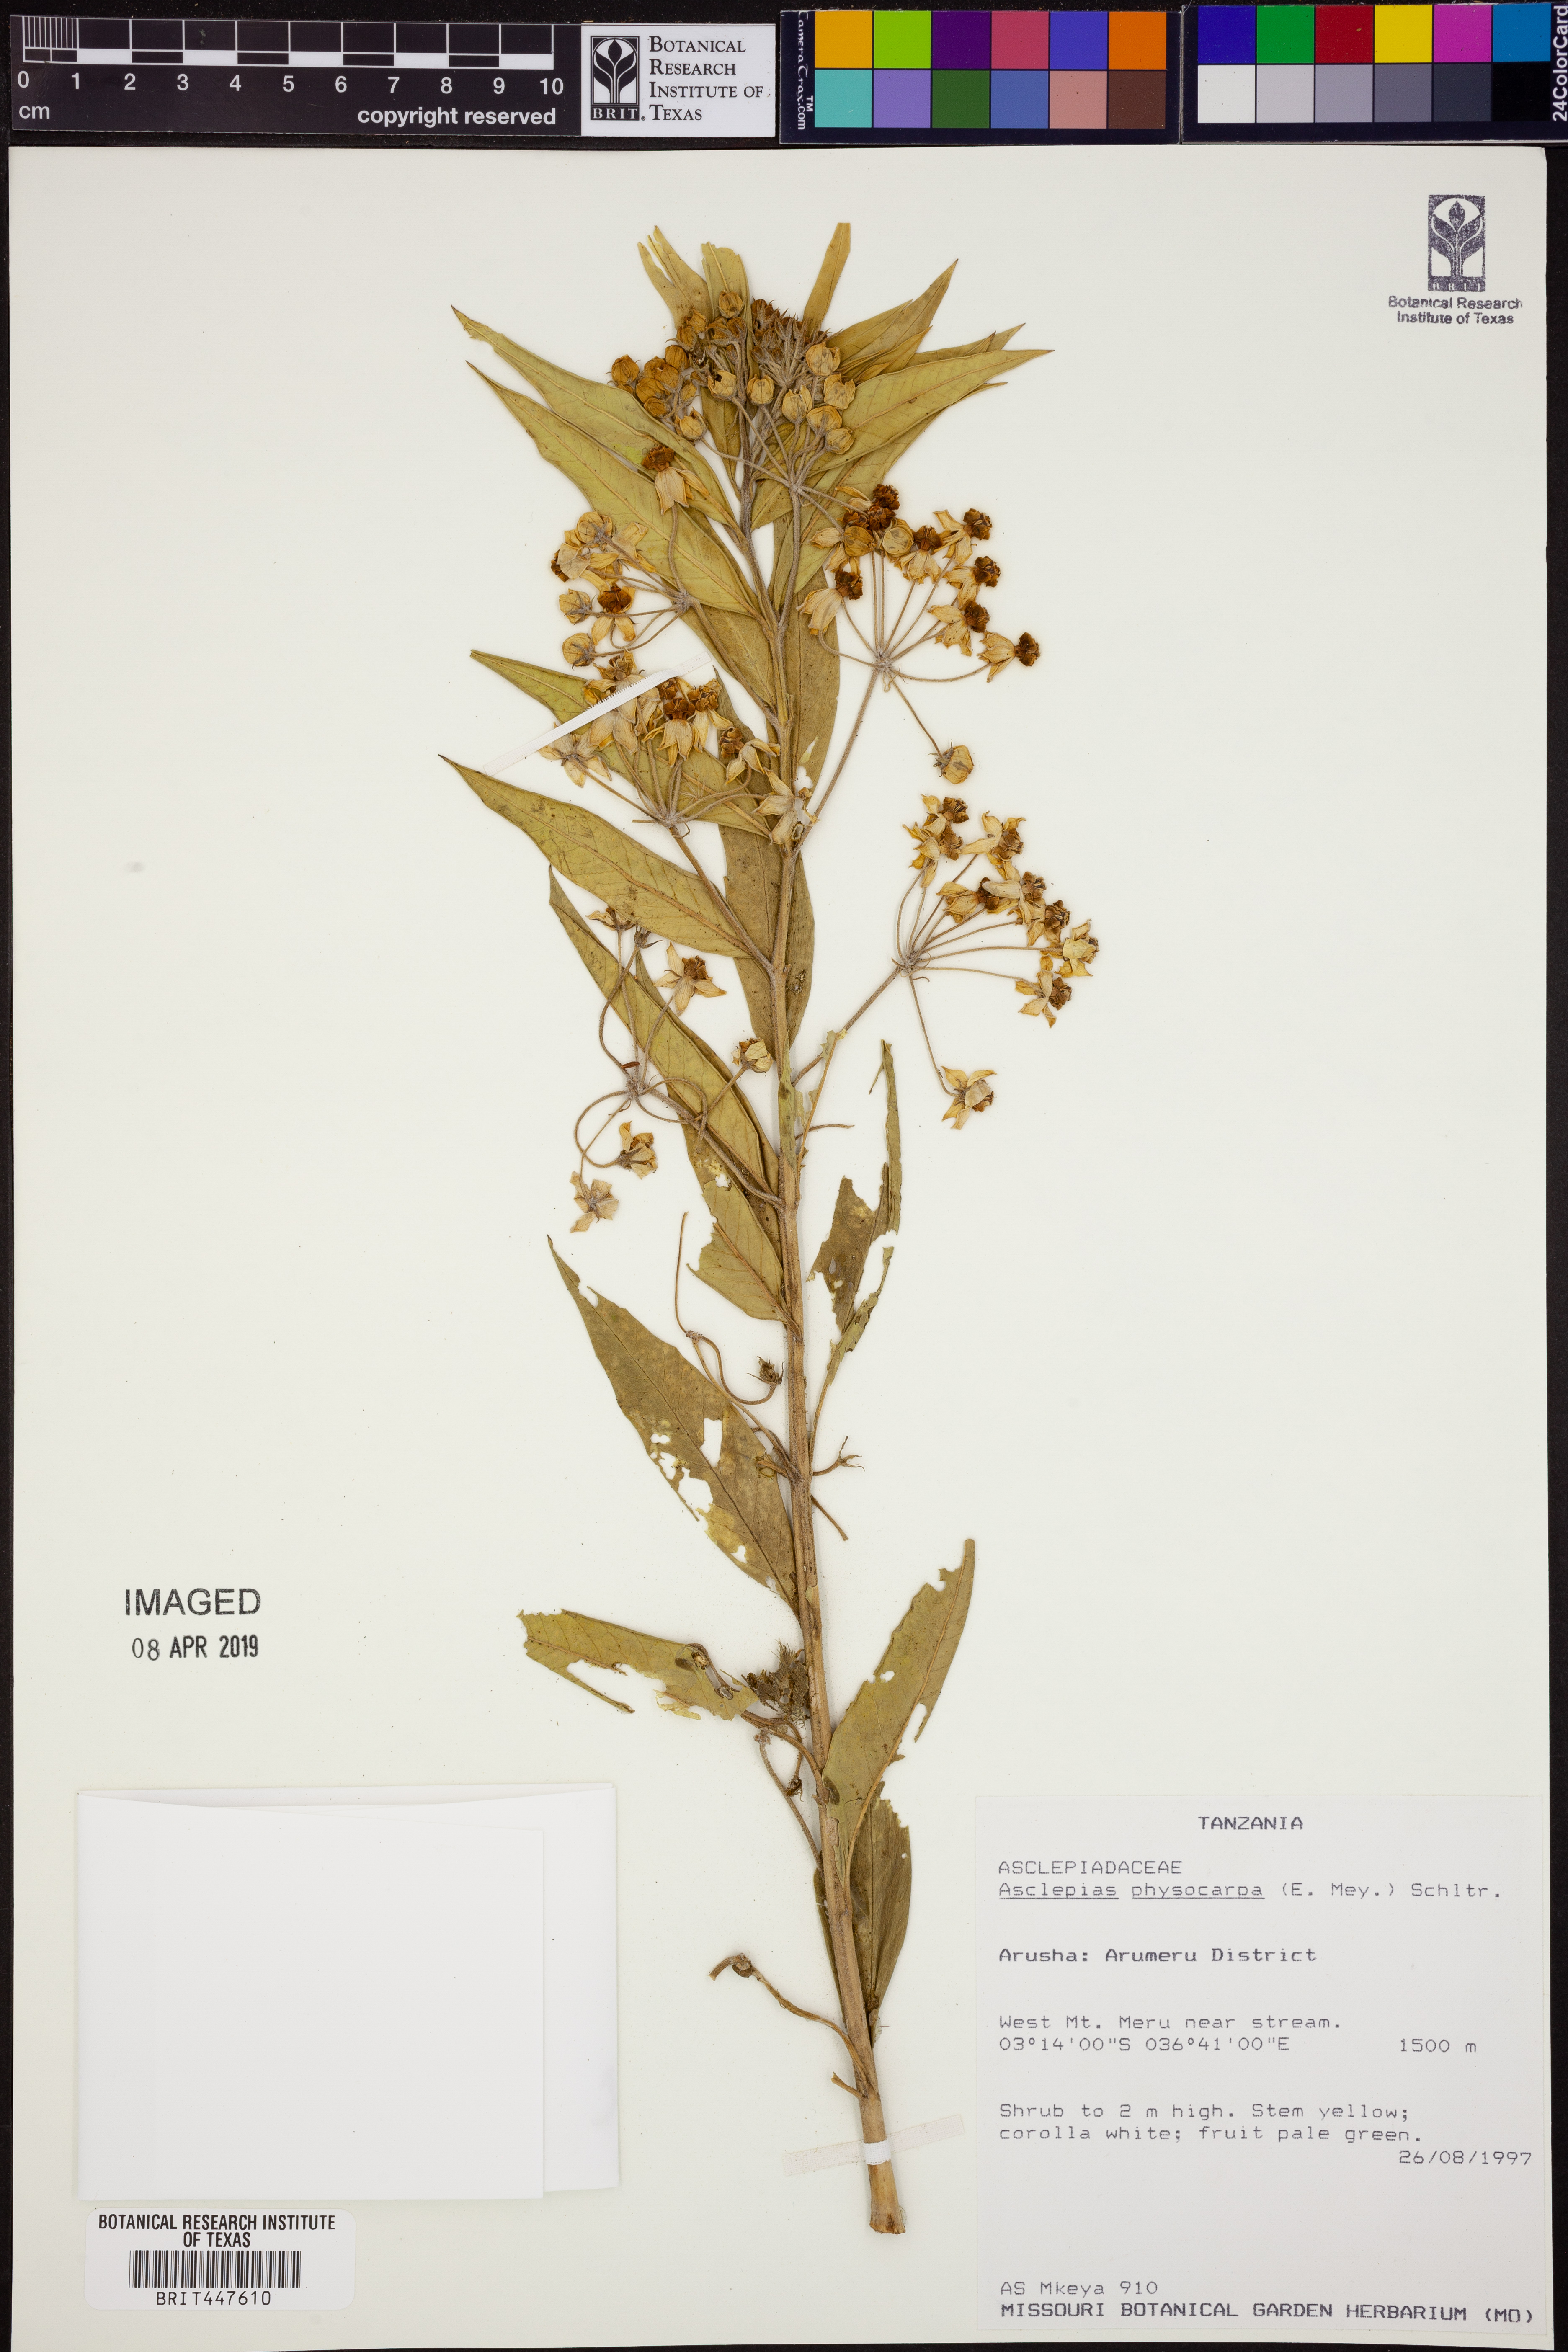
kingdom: Plantae
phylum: Tracheophyta
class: Magnoliopsida
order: Gentianales
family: Apocynaceae
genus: Gomphocarpus
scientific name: Gomphocarpus physocarpus
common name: Balloon cotton bush
